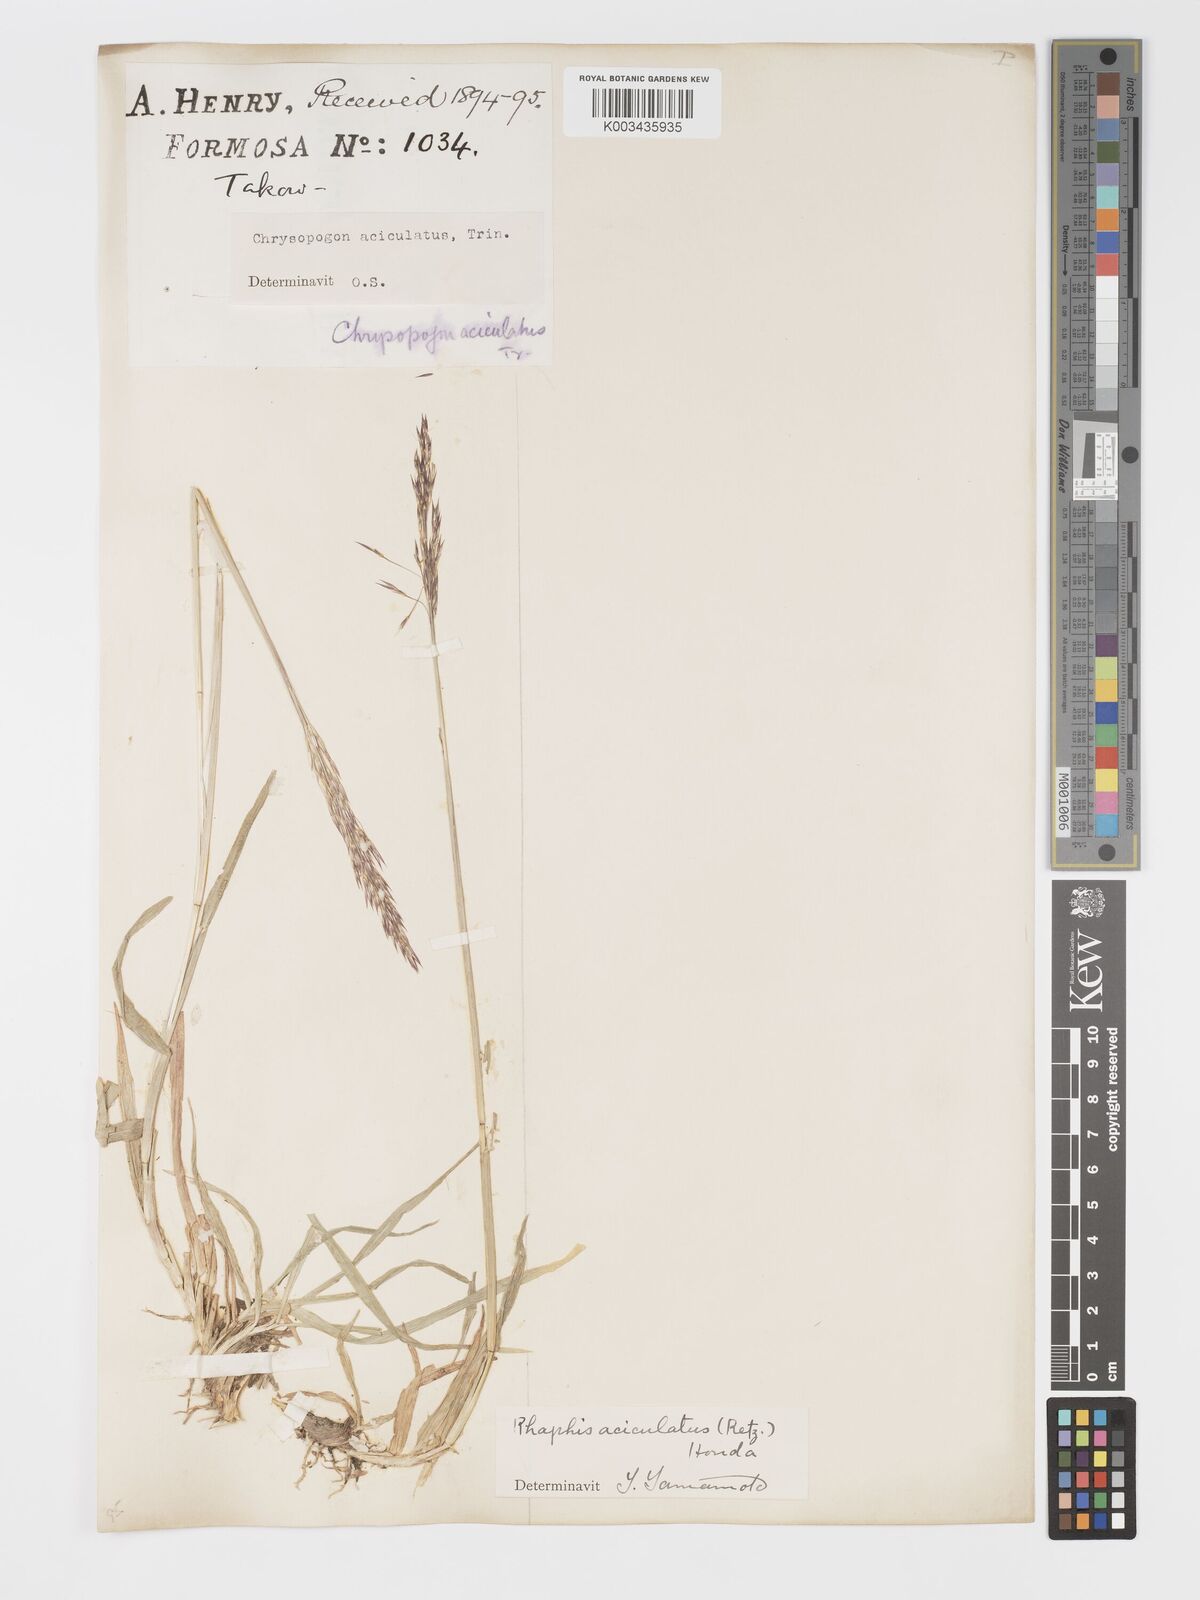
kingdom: Plantae
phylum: Tracheophyta
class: Liliopsida
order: Poales
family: Poaceae
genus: Chrysopogon
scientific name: Chrysopogon aciculatus
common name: Pilipiliula
